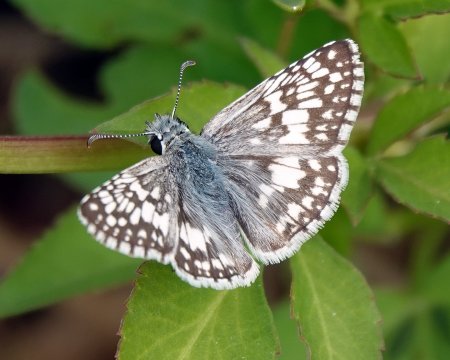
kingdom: Animalia
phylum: Arthropoda
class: Insecta
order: Lepidoptera
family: Hesperiidae
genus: Pyrgus
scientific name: Pyrgus communis
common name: Common Checkered-Skipper
